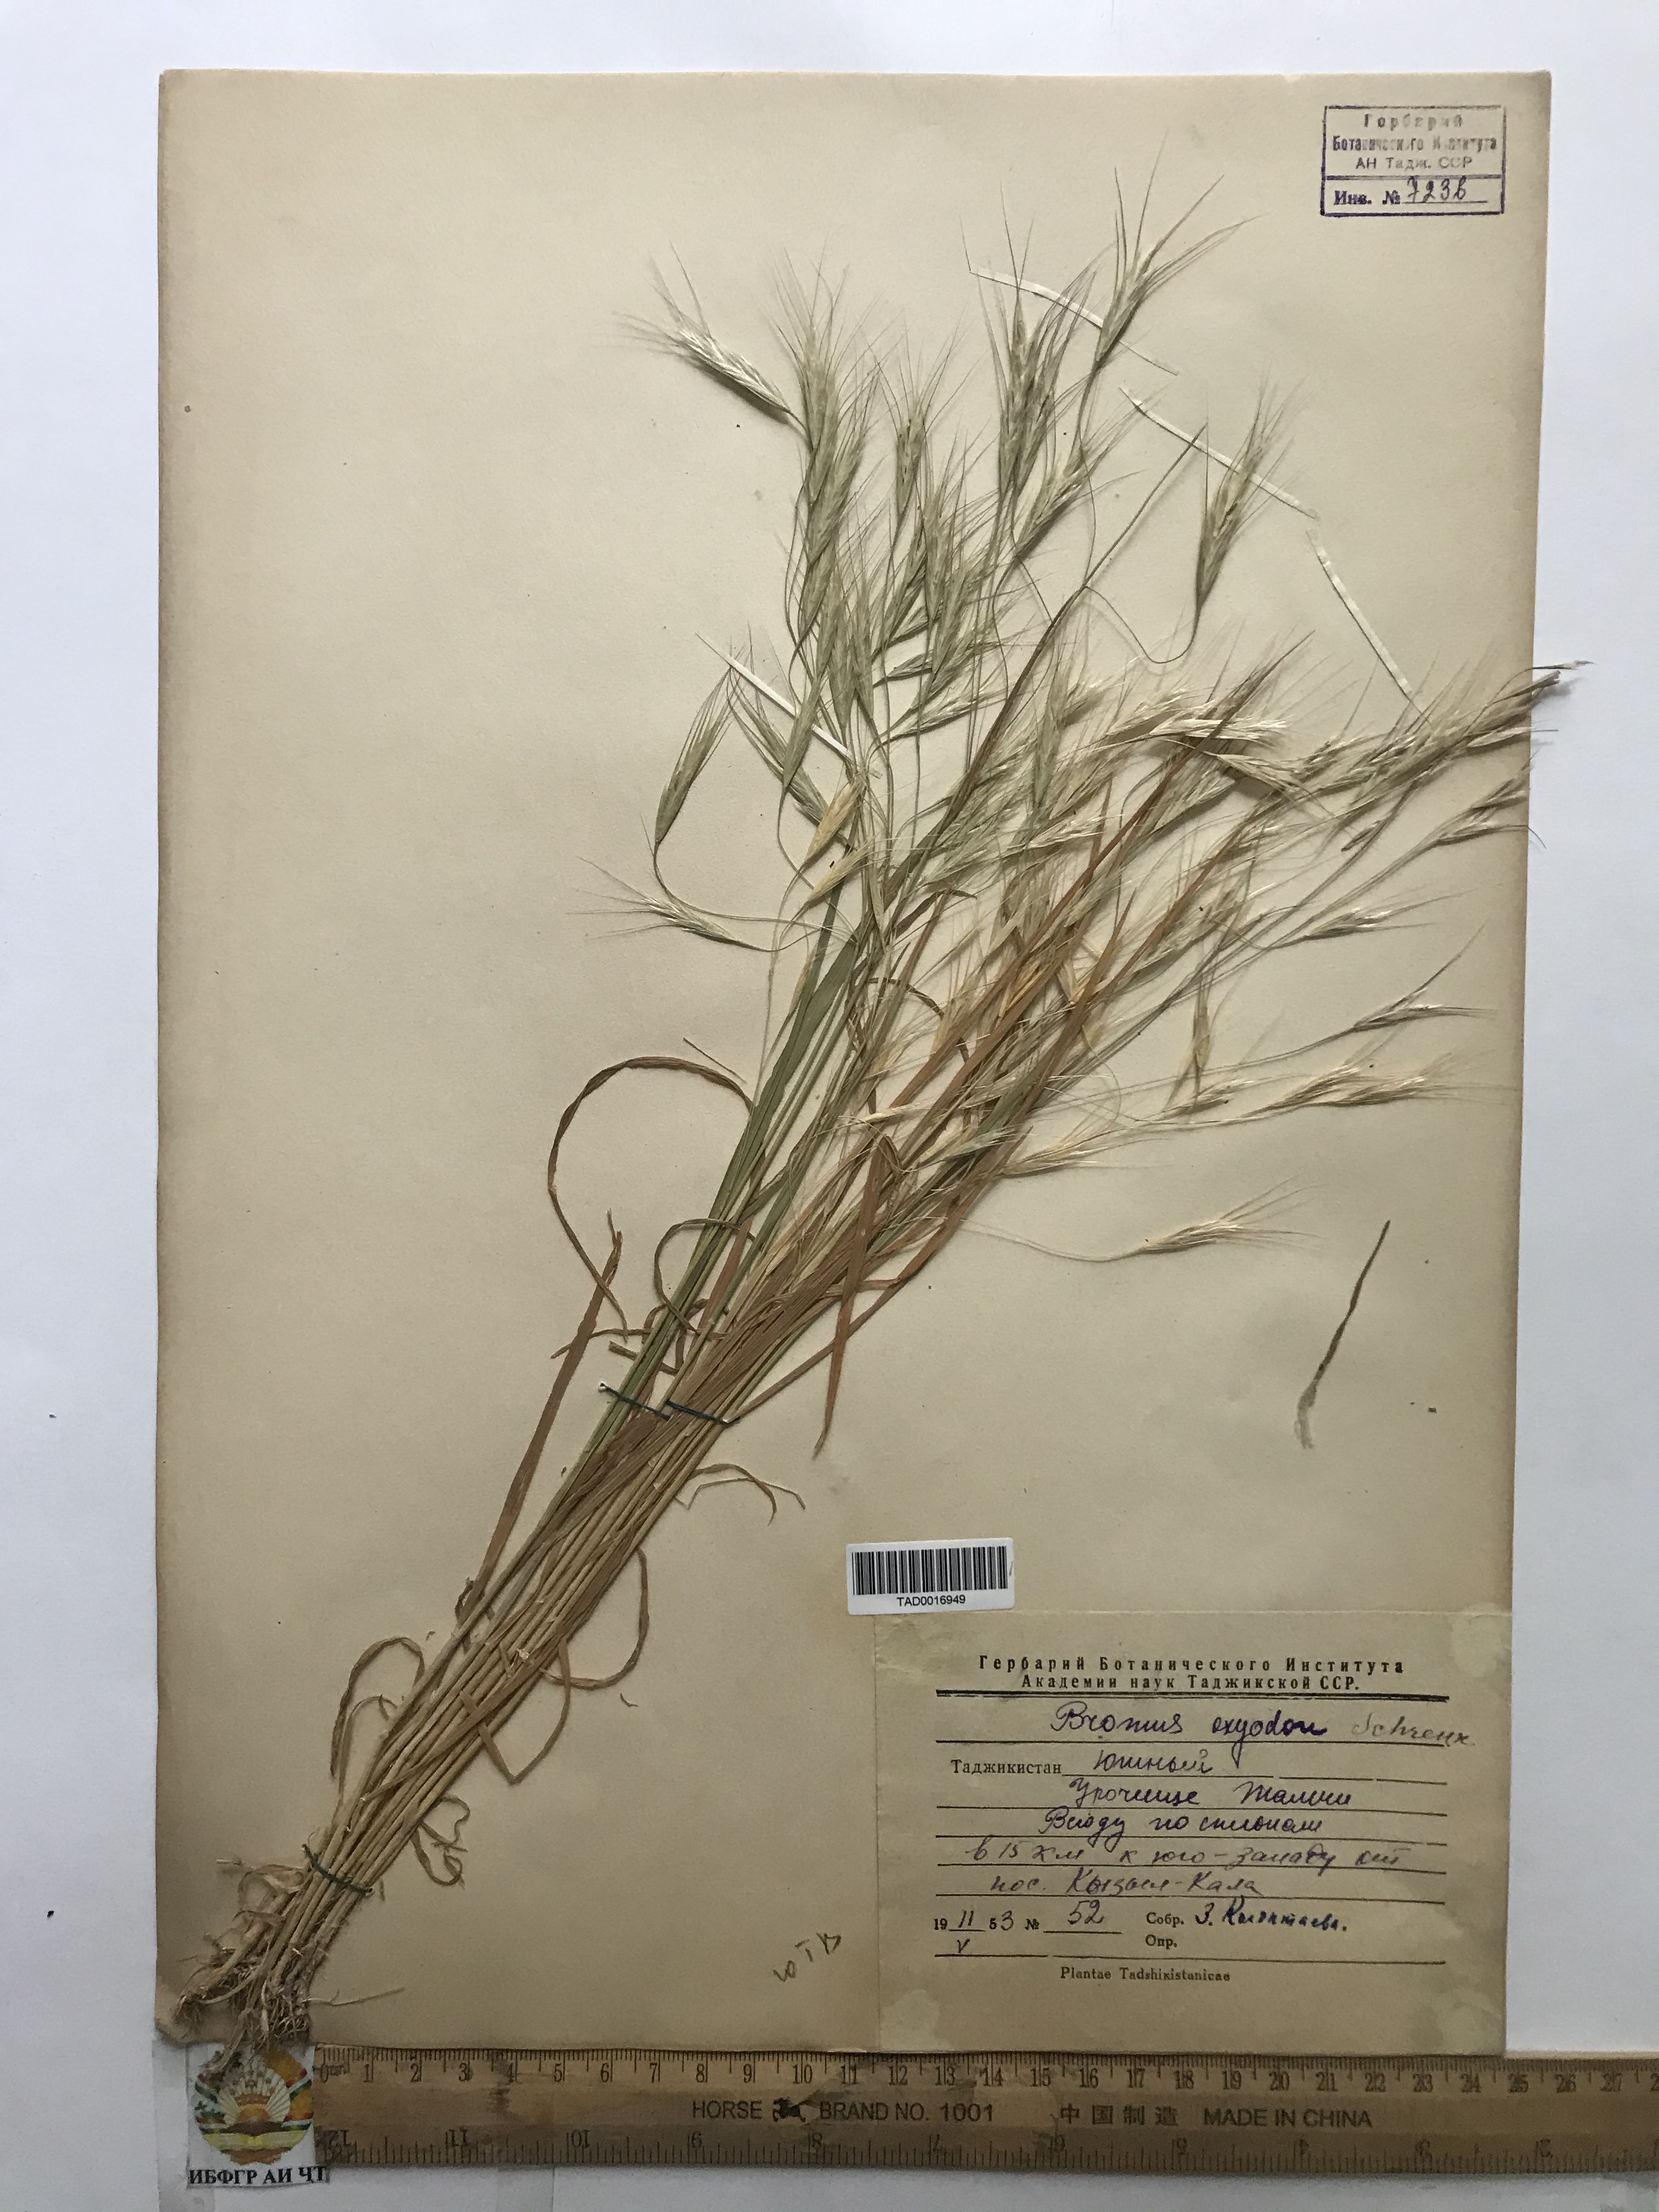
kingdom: Plantae
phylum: Tracheophyta
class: Liliopsida
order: Poales
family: Poaceae
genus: Bromus
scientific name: Bromus oxyodon
